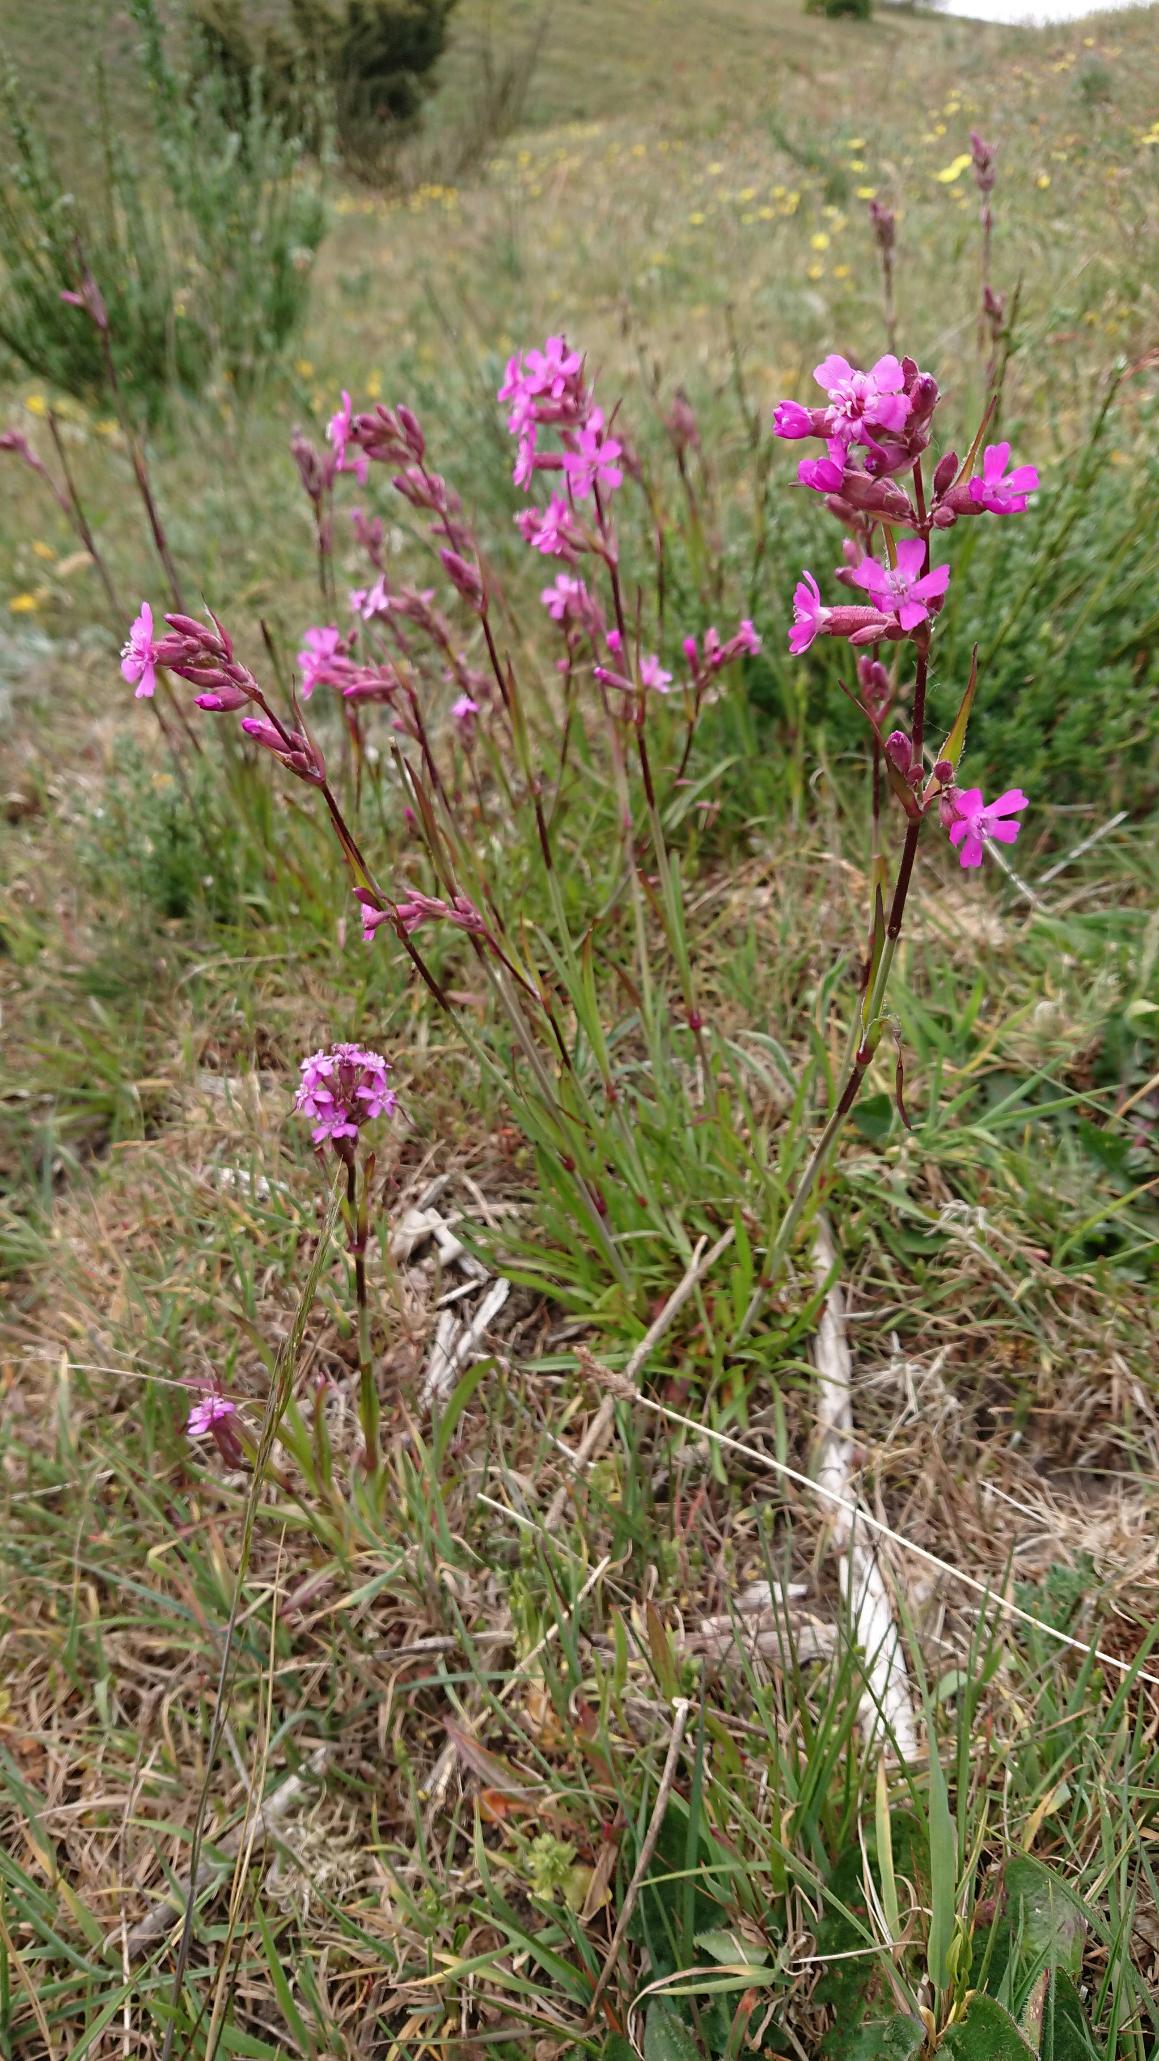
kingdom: Plantae
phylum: Tracheophyta
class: Magnoliopsida
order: Caryophyllales
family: Caryophyllaceae
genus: Viscaria
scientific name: Viscaria vulgaris
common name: Tjærenellike
